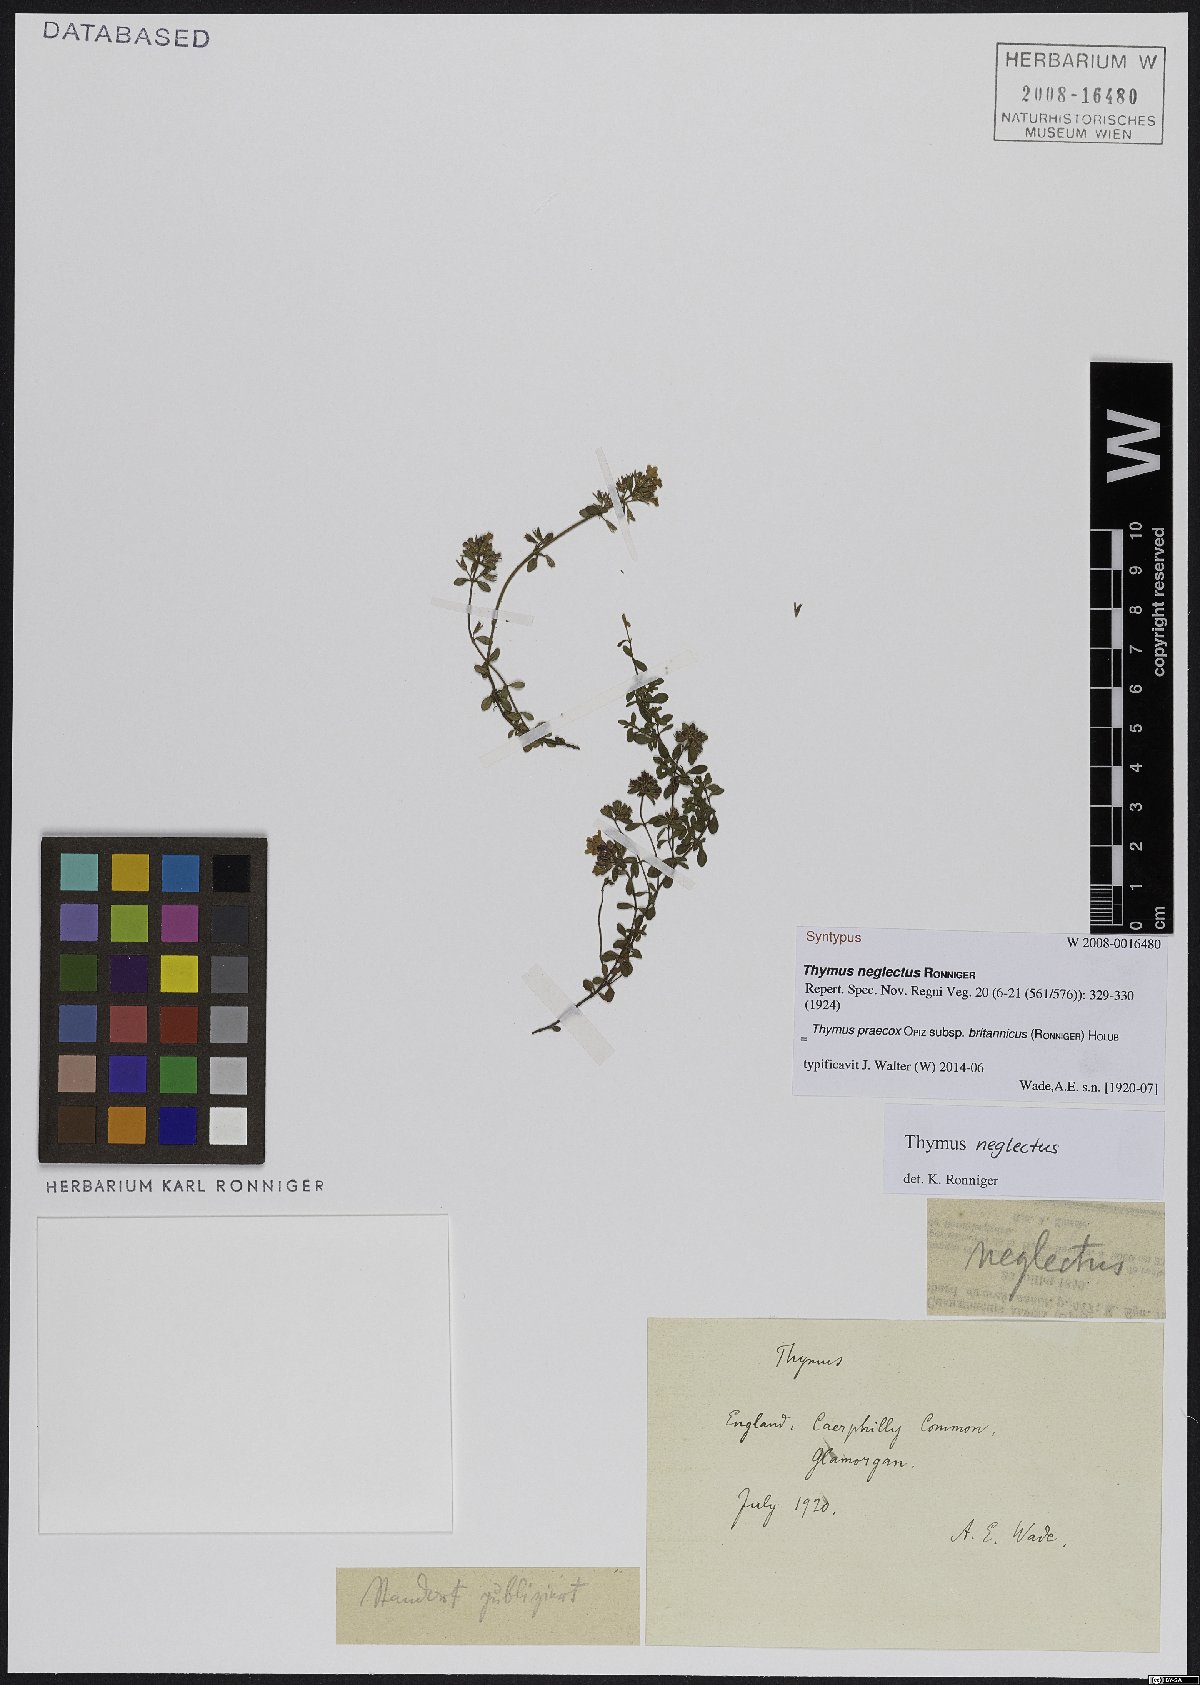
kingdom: Plantae
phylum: Tracheophyta
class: Magnoliopsida
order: Lamiales
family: Lamiaceae
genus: Thymus
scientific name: Thymus praecox
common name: Wild thyme
